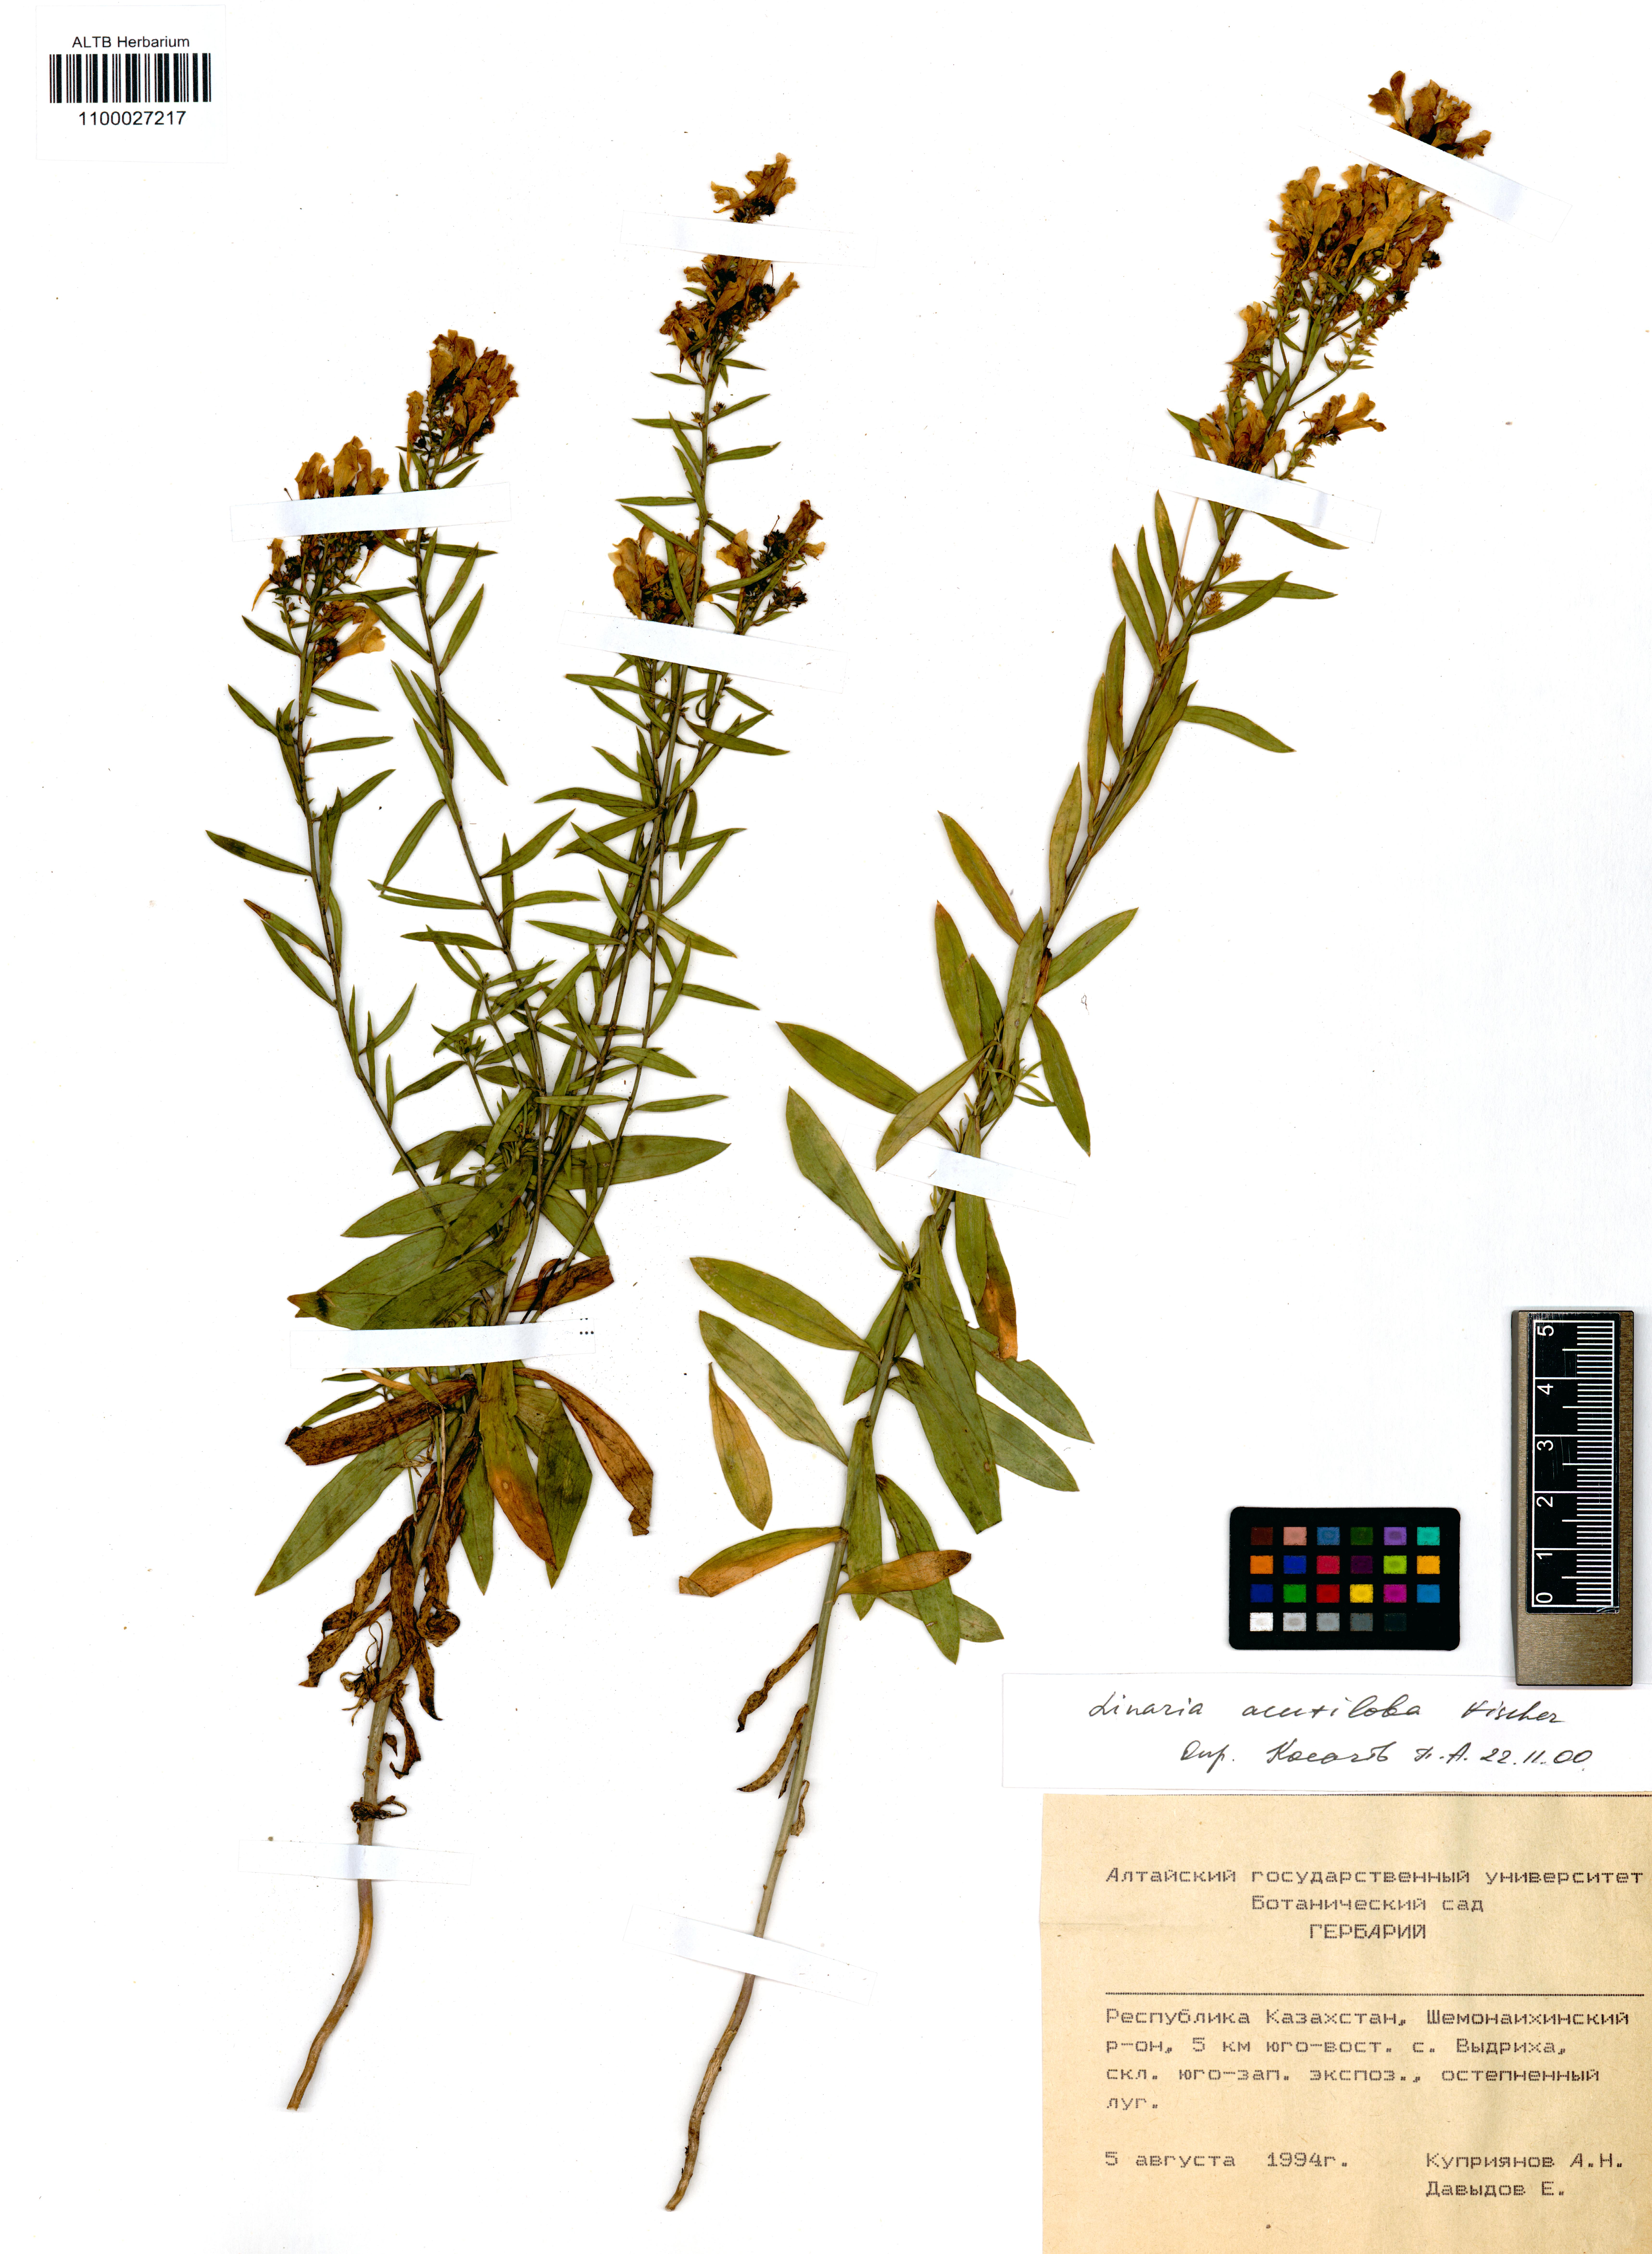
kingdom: Plantae
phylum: Tracheophyta
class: Magnoliopsida
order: Lamiales
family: Plantaginaceae
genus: Linaria
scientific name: Linaria acutiloba
